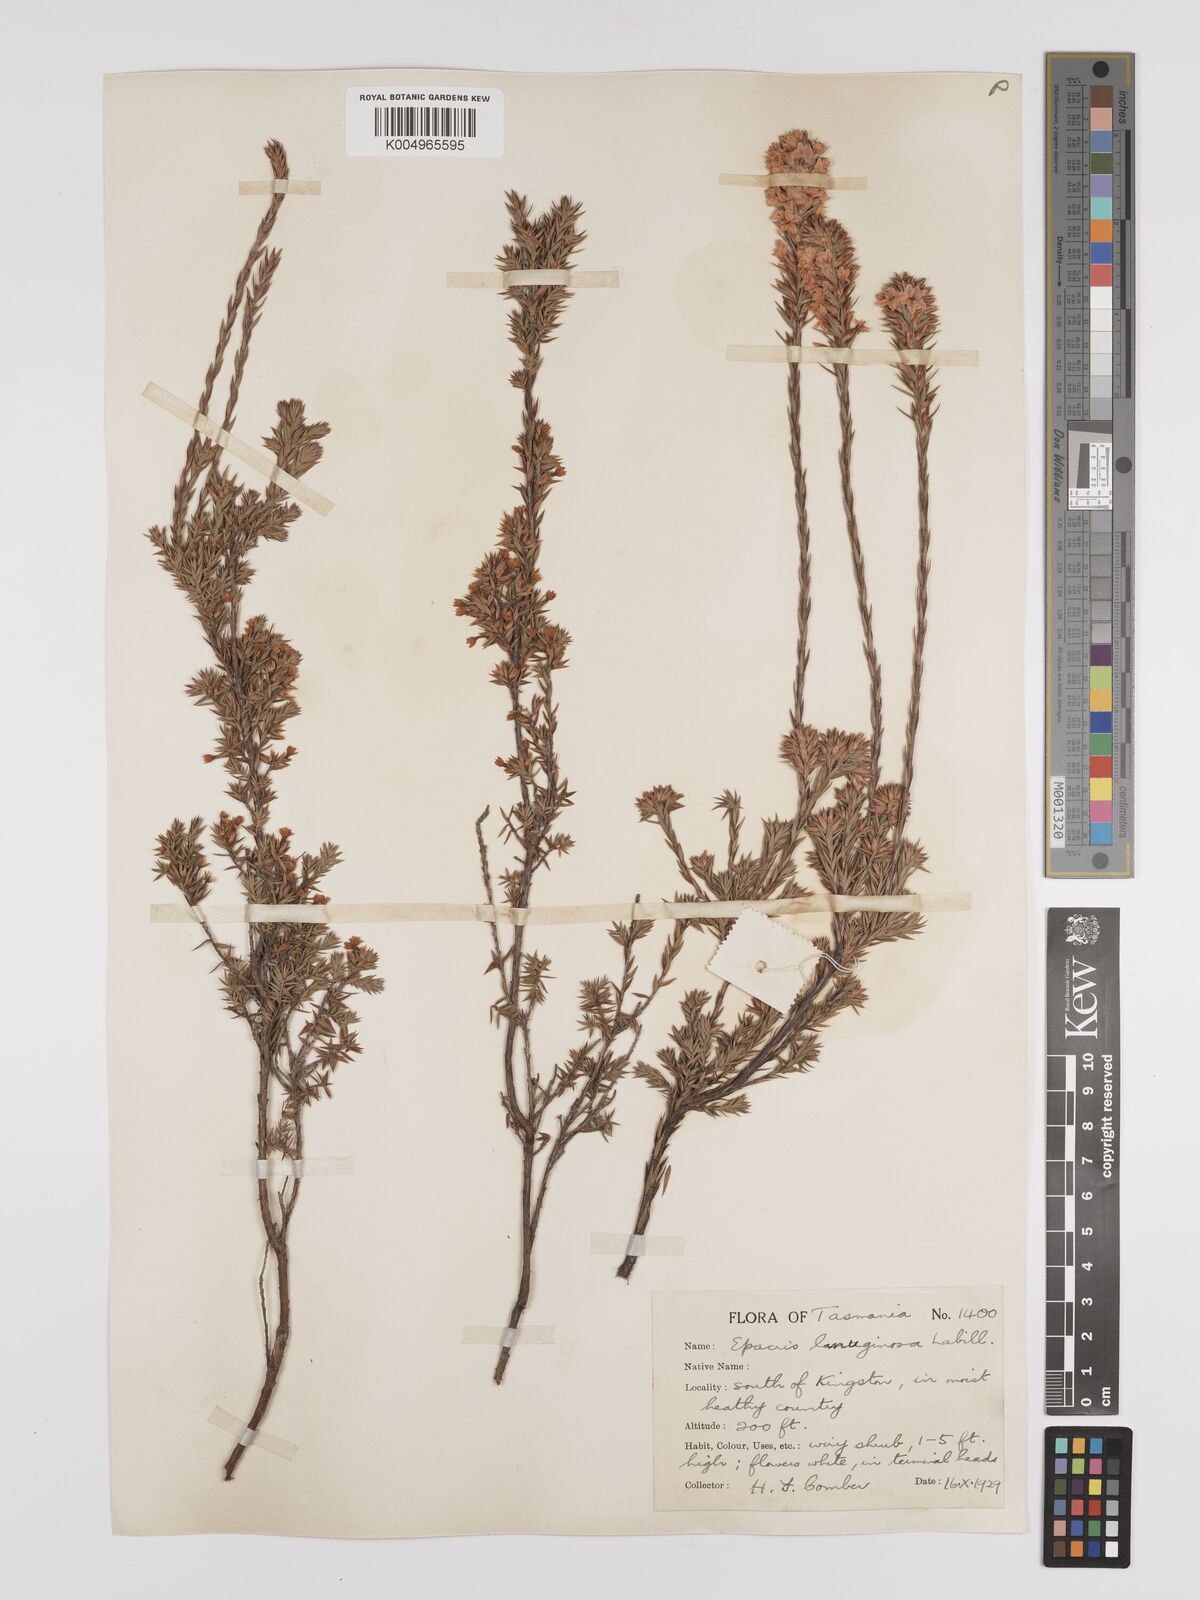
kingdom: Plantae
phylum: Tracheophyta
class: Magnoliopsida
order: Ericales
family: Ericaceae
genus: Epacris
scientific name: Epacris lanuginosa
